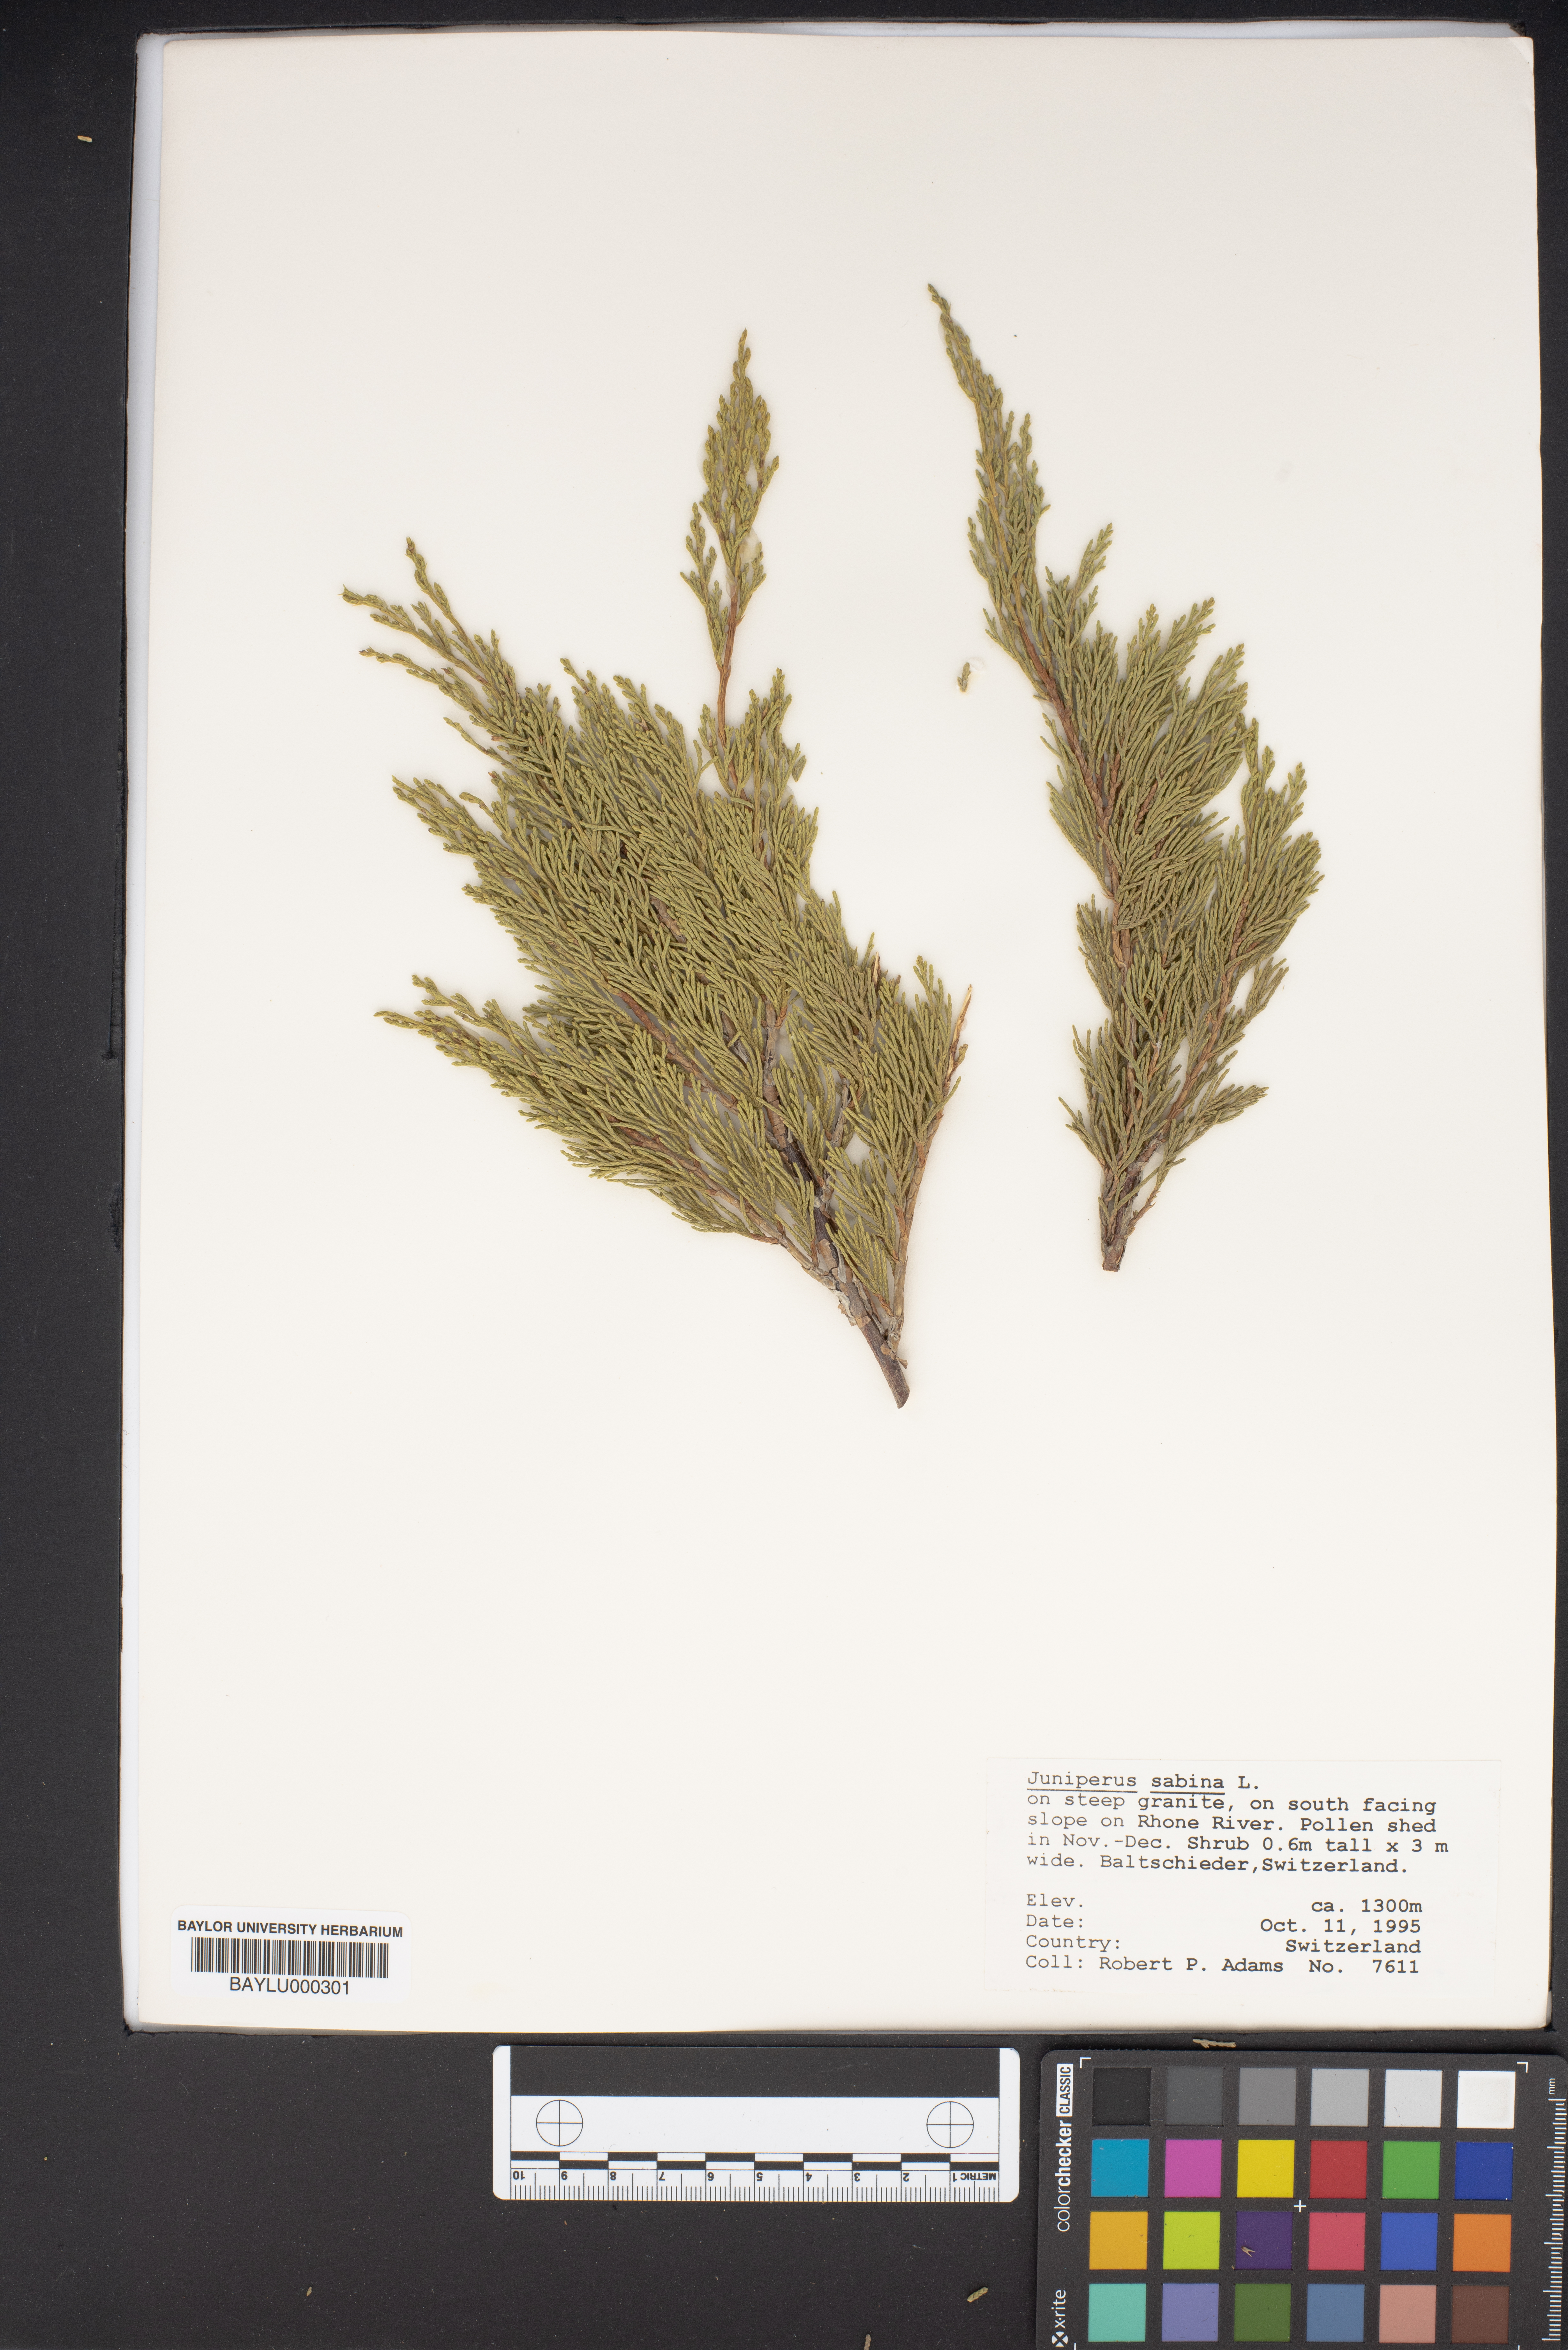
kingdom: Plantae
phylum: Tracheophyta
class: Pinopsida
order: Pinales
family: Cupressaceae
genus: Juniperus
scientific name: Juniperus sabina
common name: Savin
